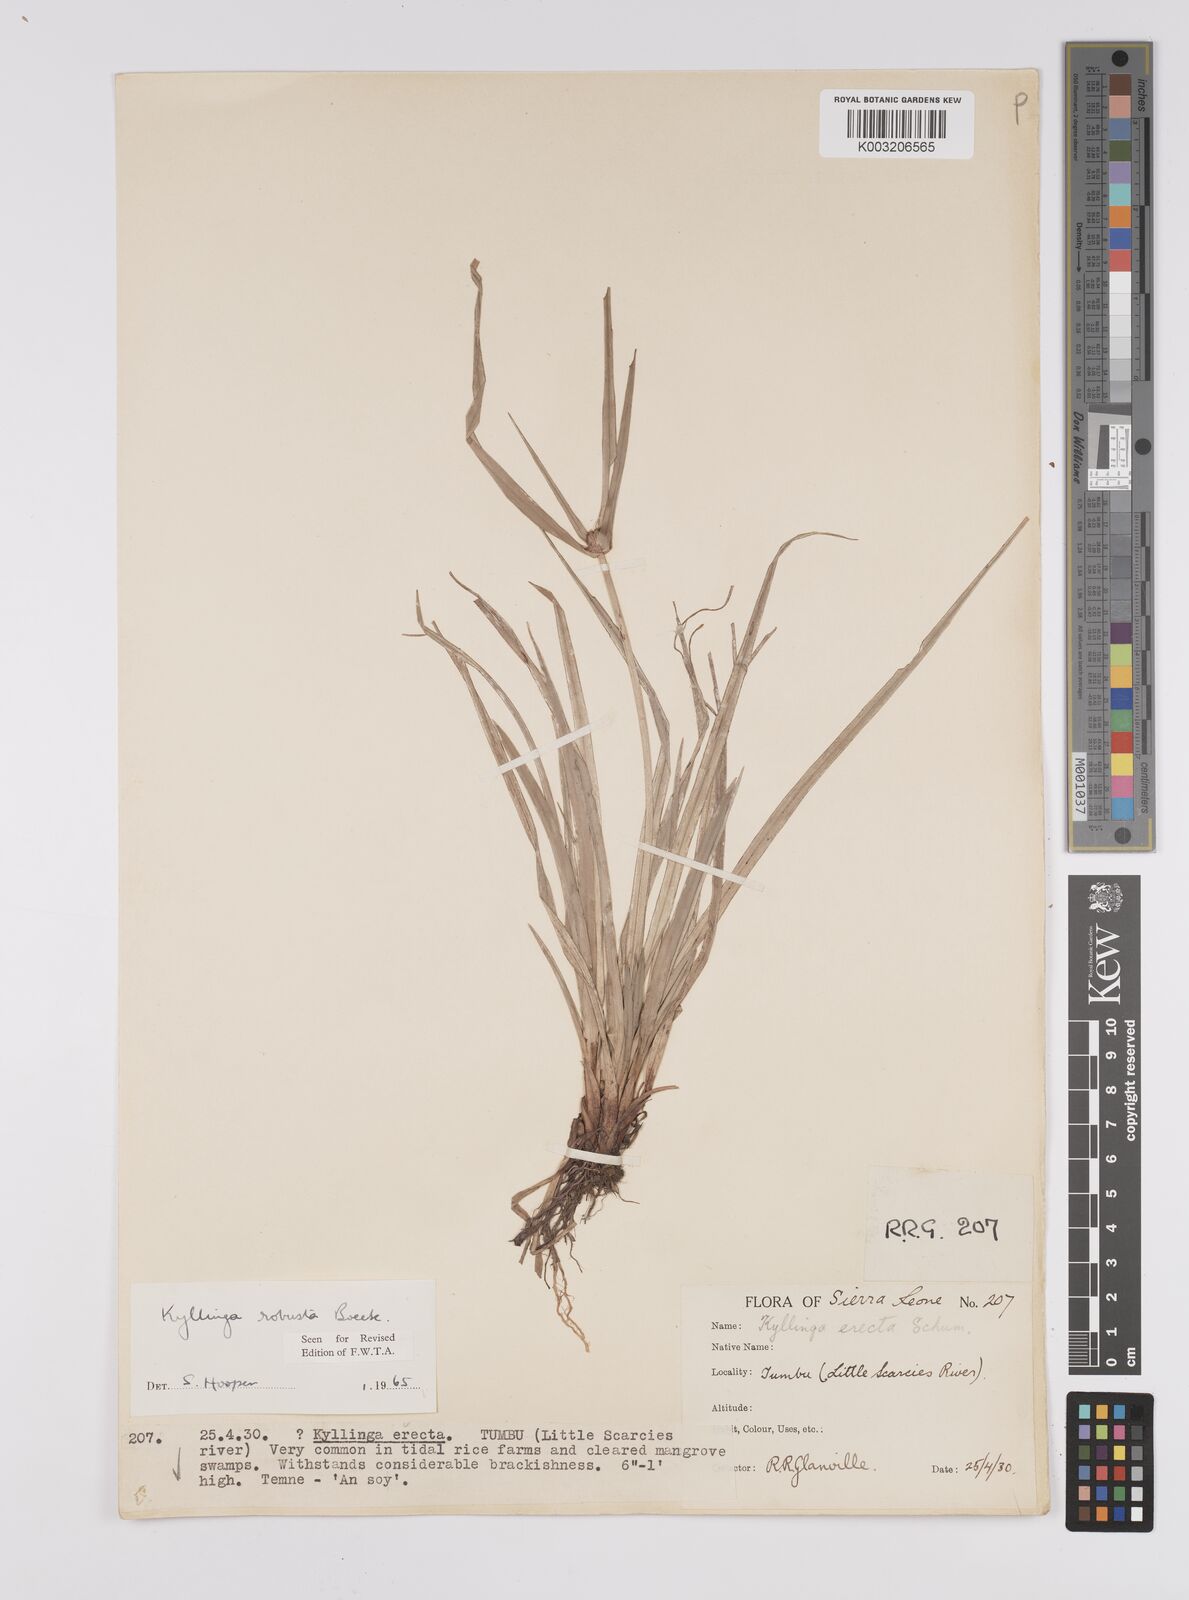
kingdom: Plantae
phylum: Tracheophyta
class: Liliopsida
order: Poales
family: Cyperaceae
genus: Cyperus
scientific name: Cyperus
